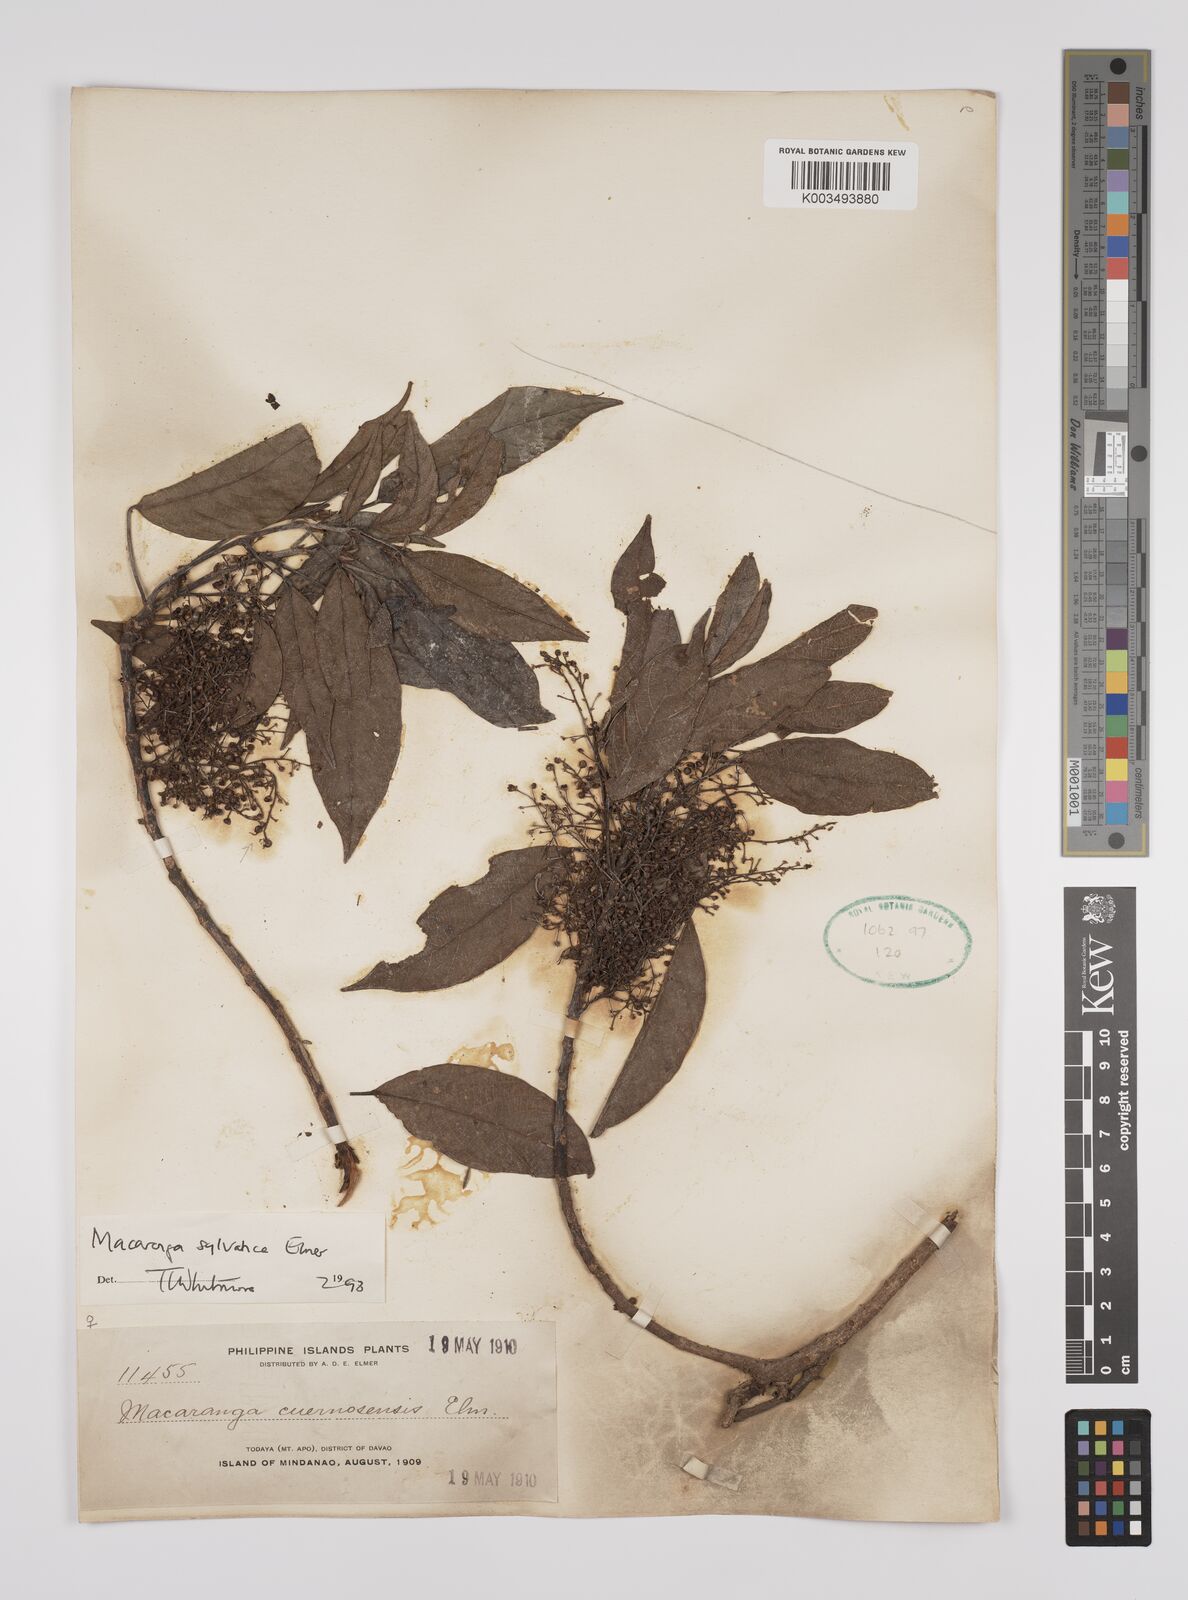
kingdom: Plantae
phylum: Tracheophyta
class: Magnoliopsida
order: Malpighiales
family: Euphorbiaceae
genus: Macaranga
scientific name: Macaranga sylvatica
